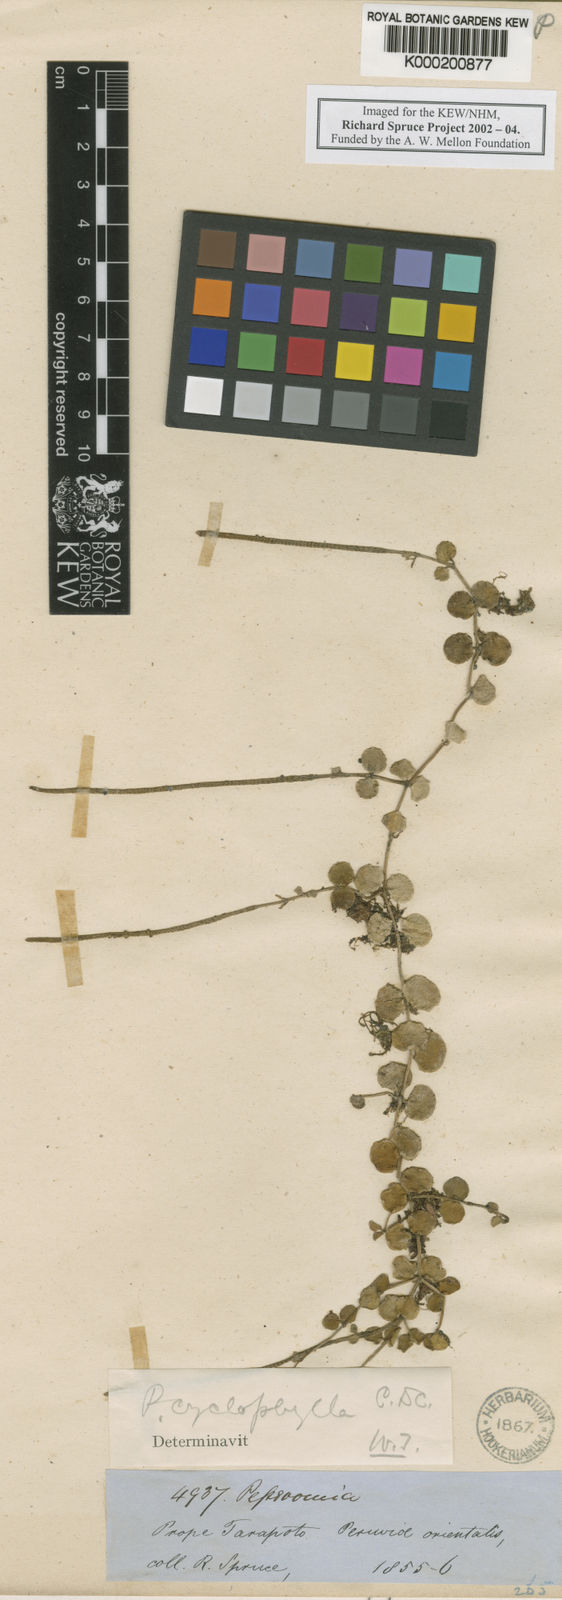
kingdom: Plantae
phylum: Tracheophyta
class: Magnoliopsida
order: Piperales
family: Piperaceae
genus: Peperomia
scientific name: Peperomia cyclophylla
